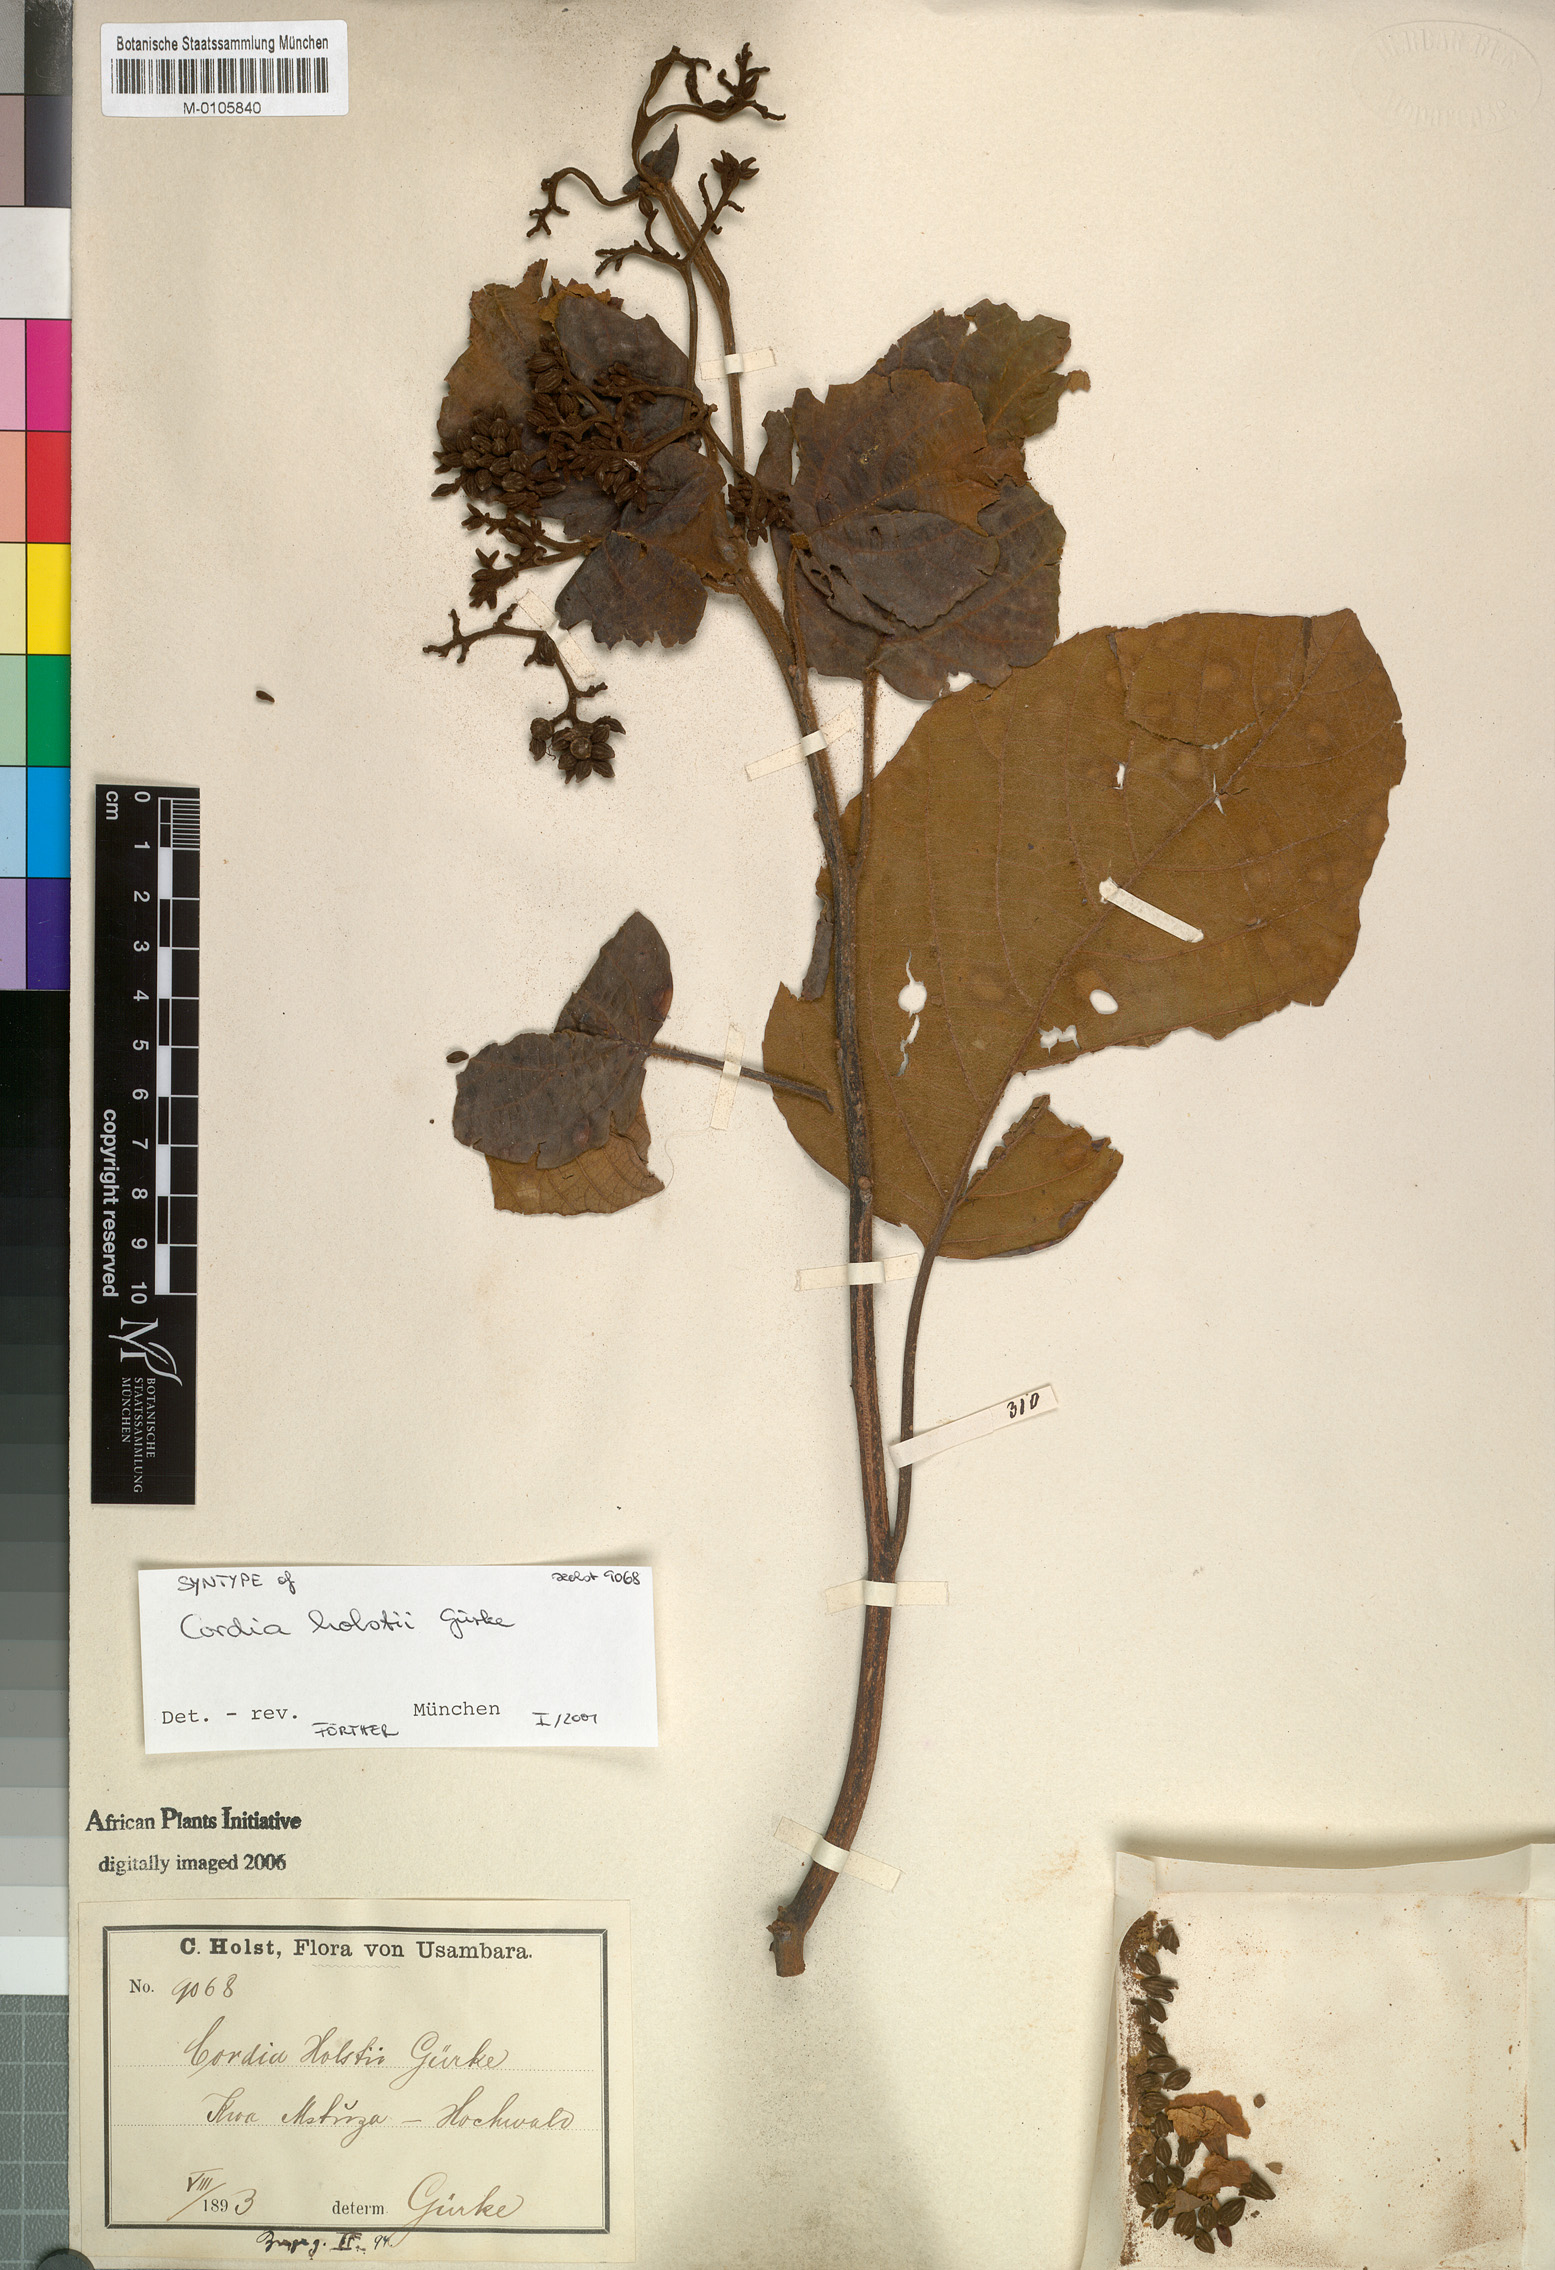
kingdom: Plantae
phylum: Tracheophyta
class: Magnoliopsida
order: Boraginales
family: Cordiaceae
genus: Cordia
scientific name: Cordia africana
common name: Large-leaved cordia
